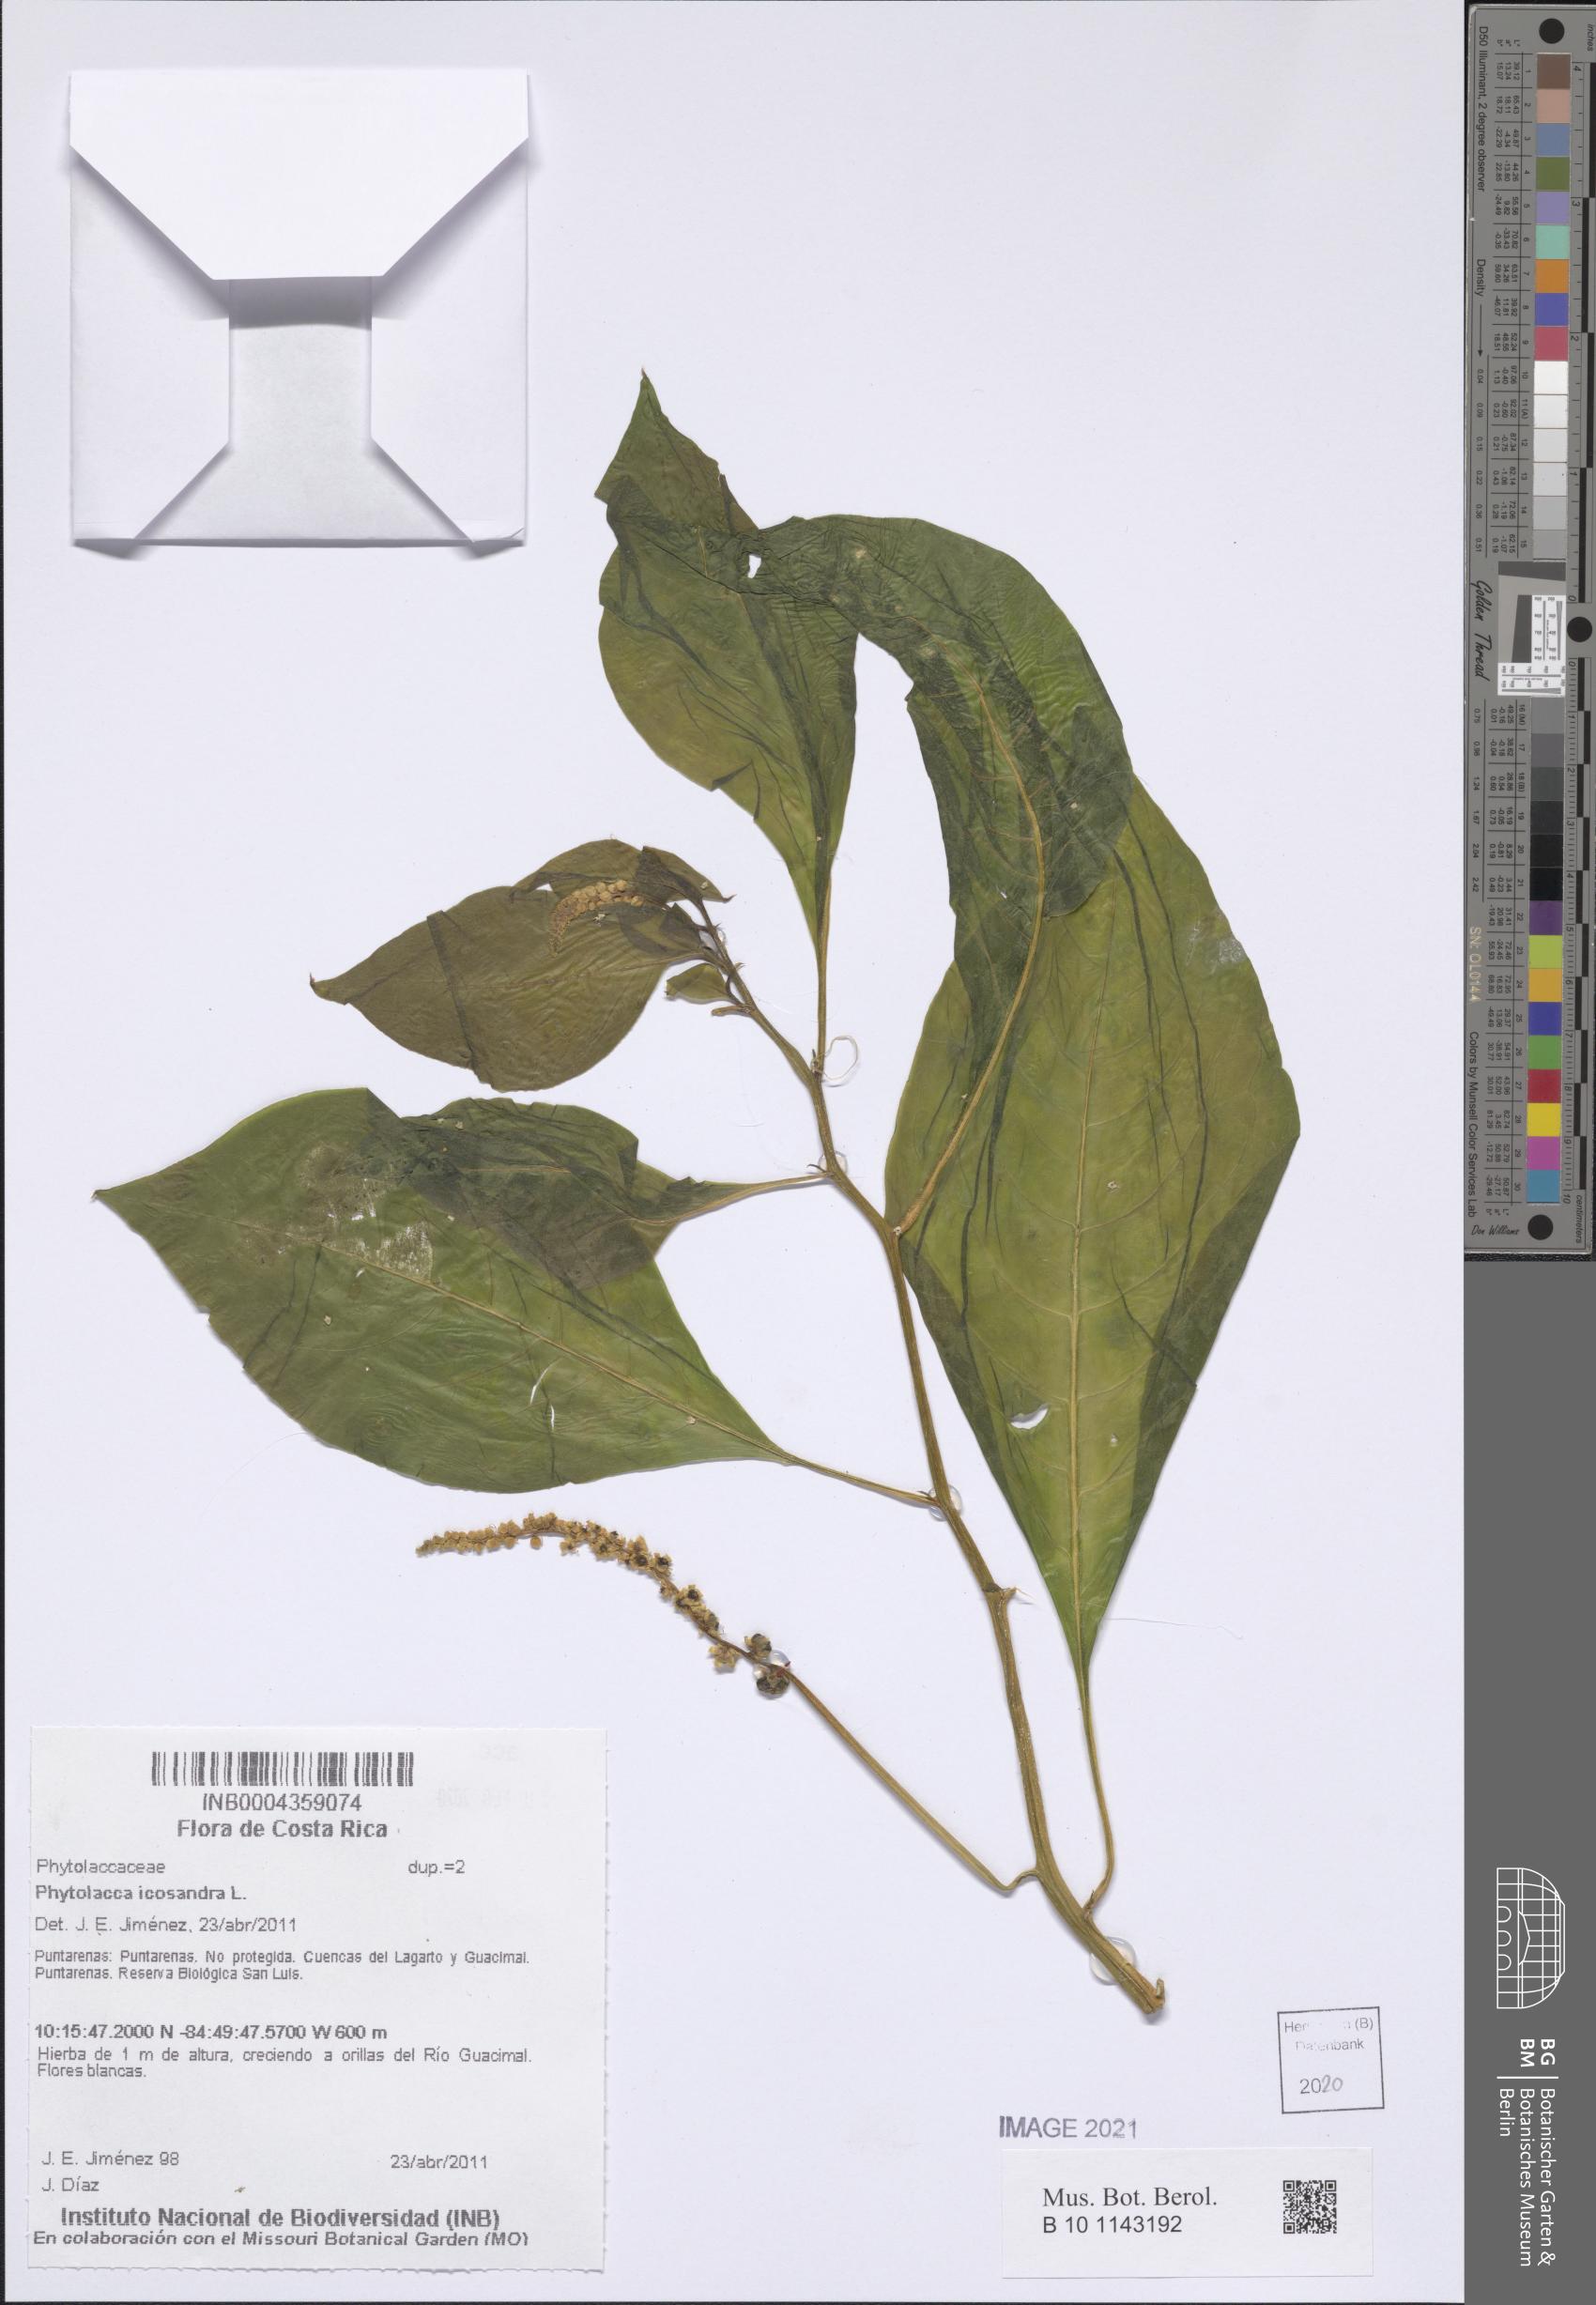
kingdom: Plantae
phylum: Tracheophyta
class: Magnoliopsida
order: Caryophyllales
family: Phytolaccaceae
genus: Phytolacca
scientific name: Phytolacca icosandra
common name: Button pokeweed
